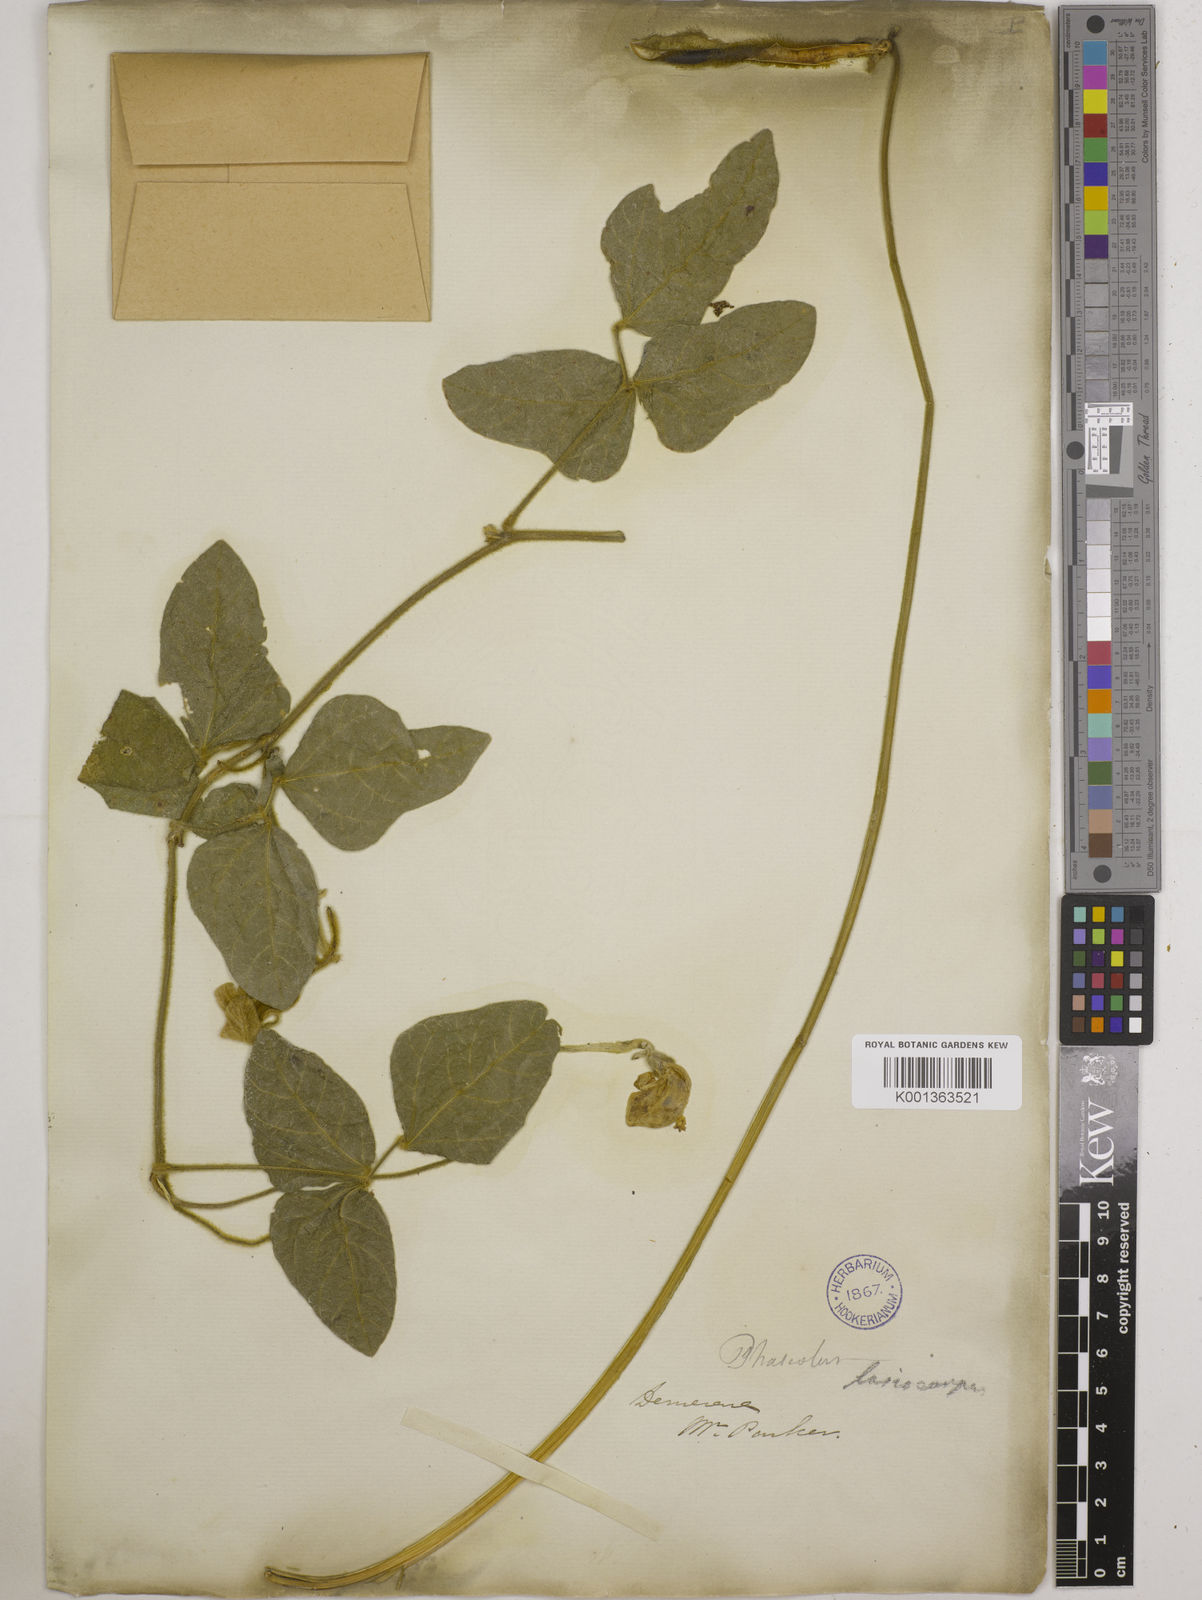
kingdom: Plantae
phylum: Tracheophyta
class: Magnoliopsida
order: Fabales
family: Fabaceae
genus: Vigna
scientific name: Vigna lasiocarpa
